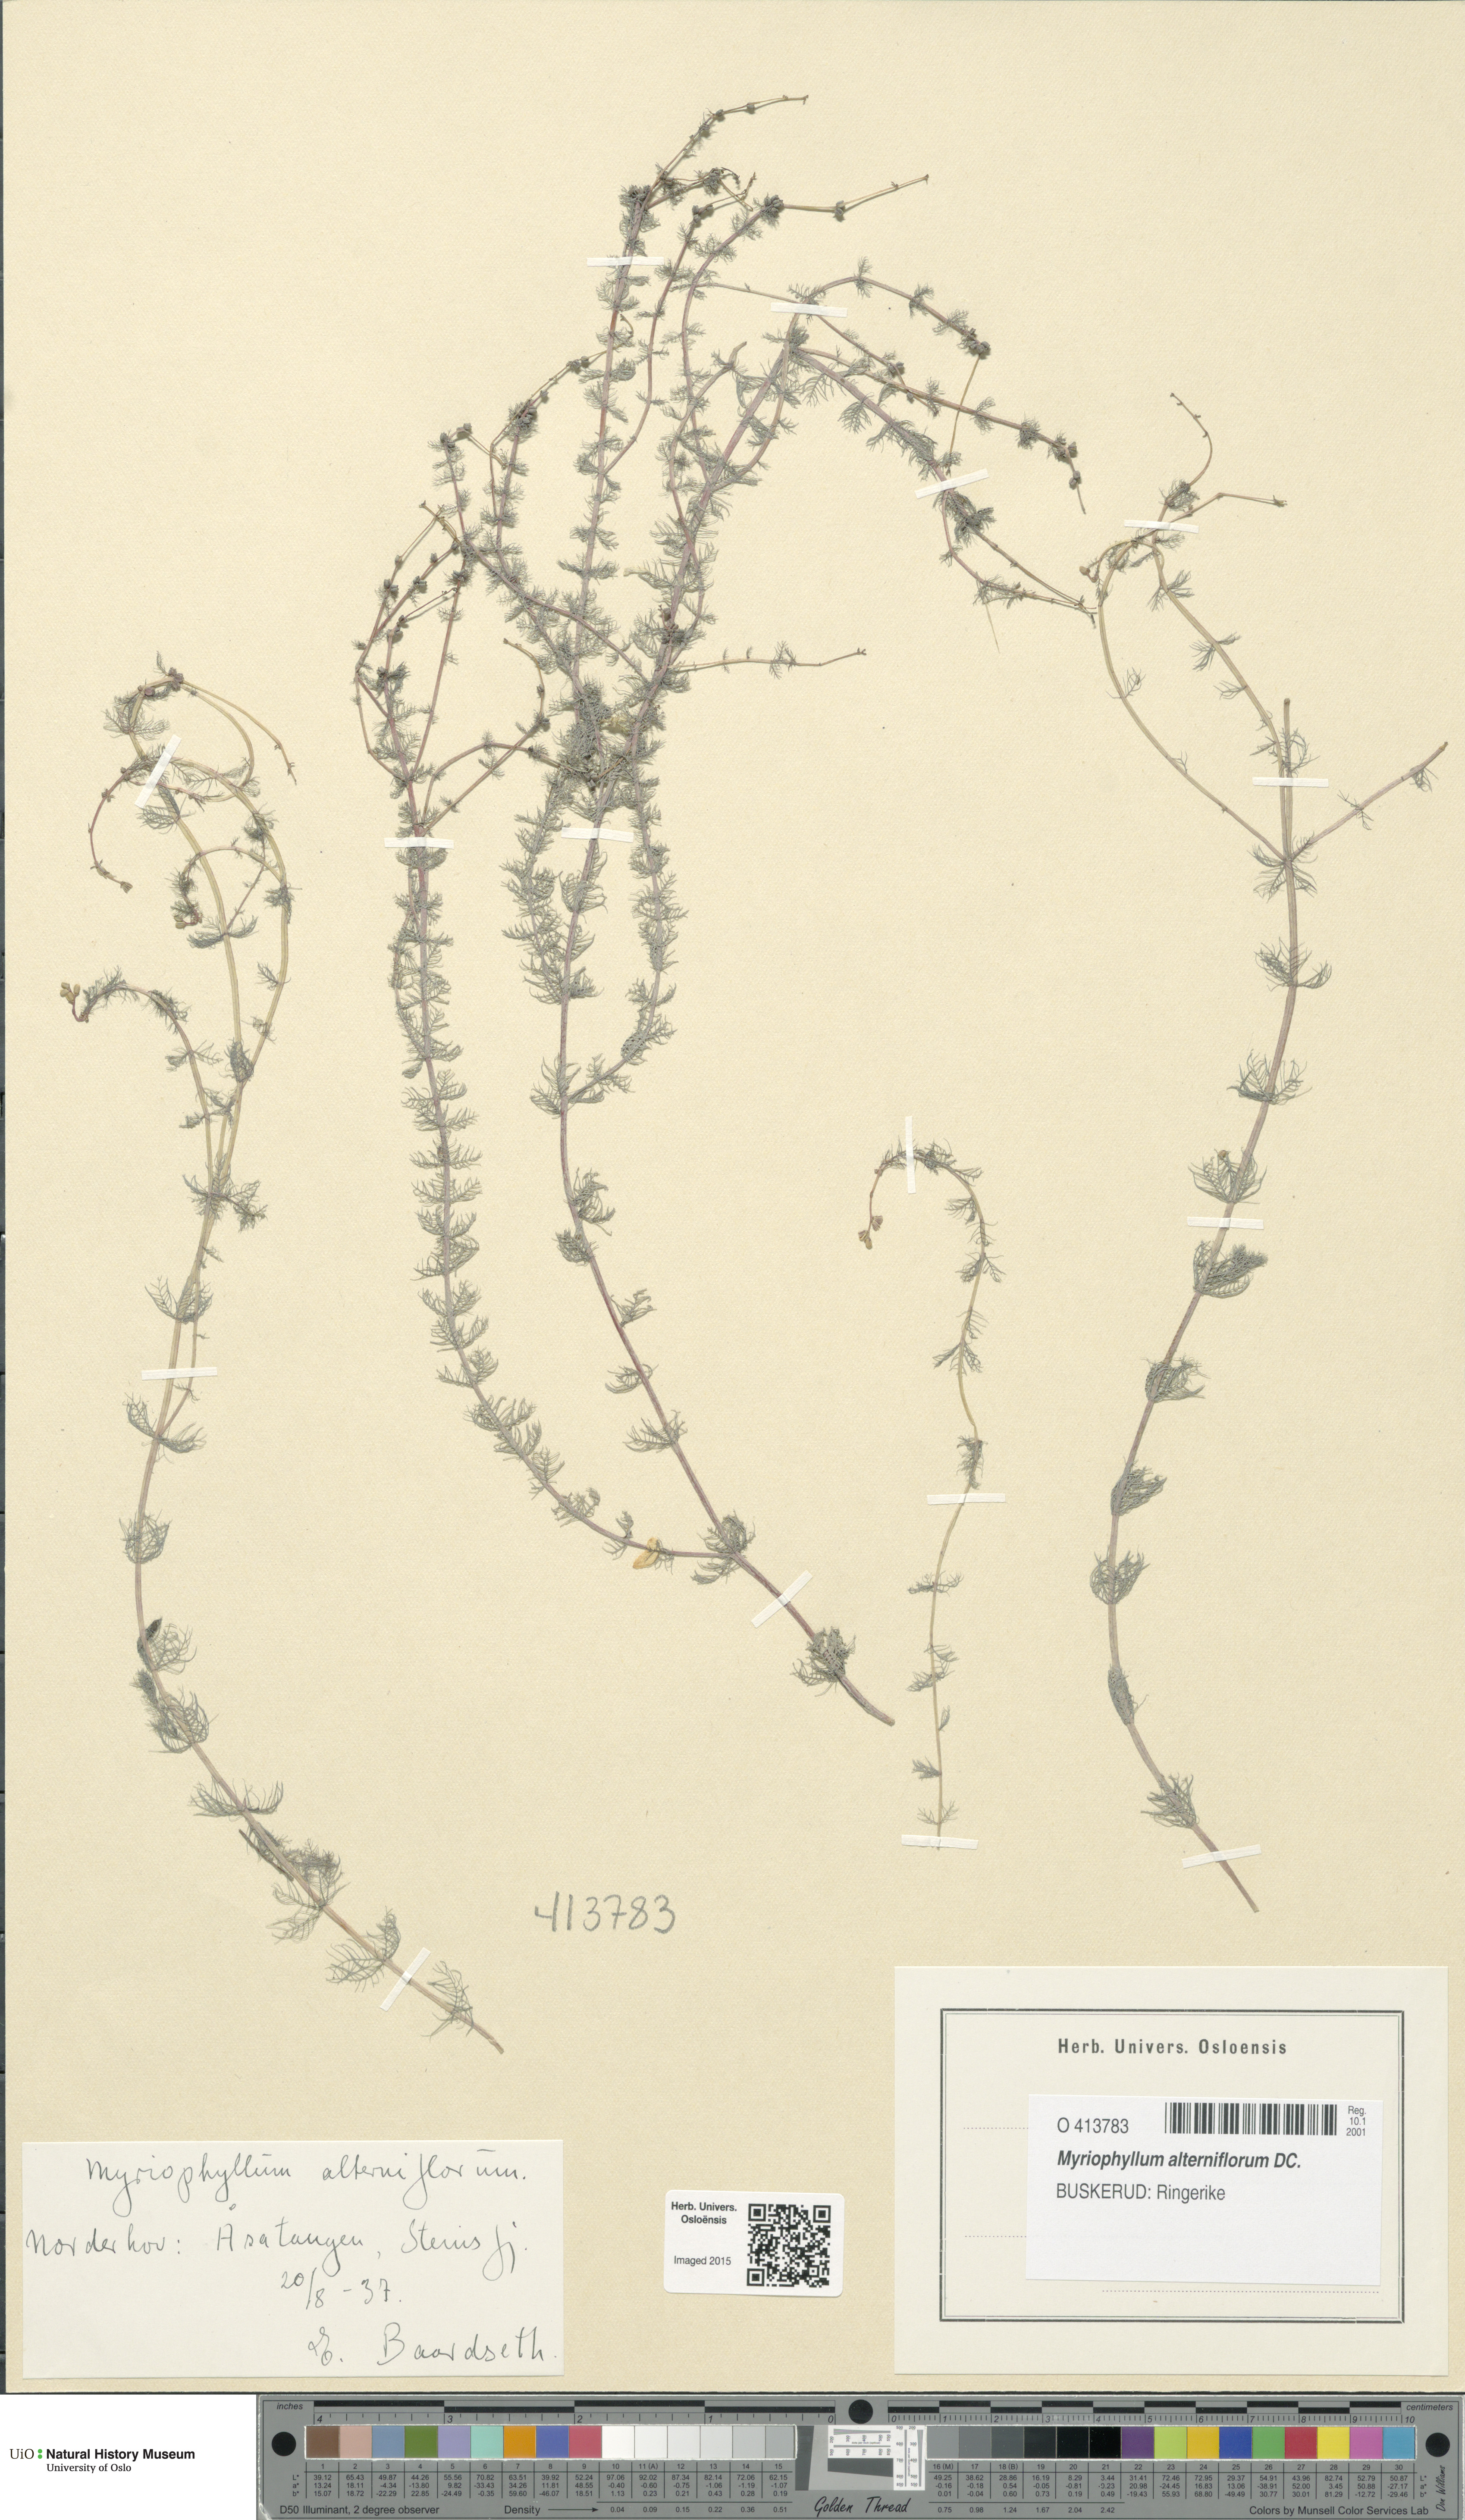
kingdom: Plantae
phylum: Tracheophyta
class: Magnoliopsida
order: Saxifragales
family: Haloragaceae
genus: Myriophyllum
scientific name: Myriophyllum alterniflorum
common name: Alternate water-milfoil
